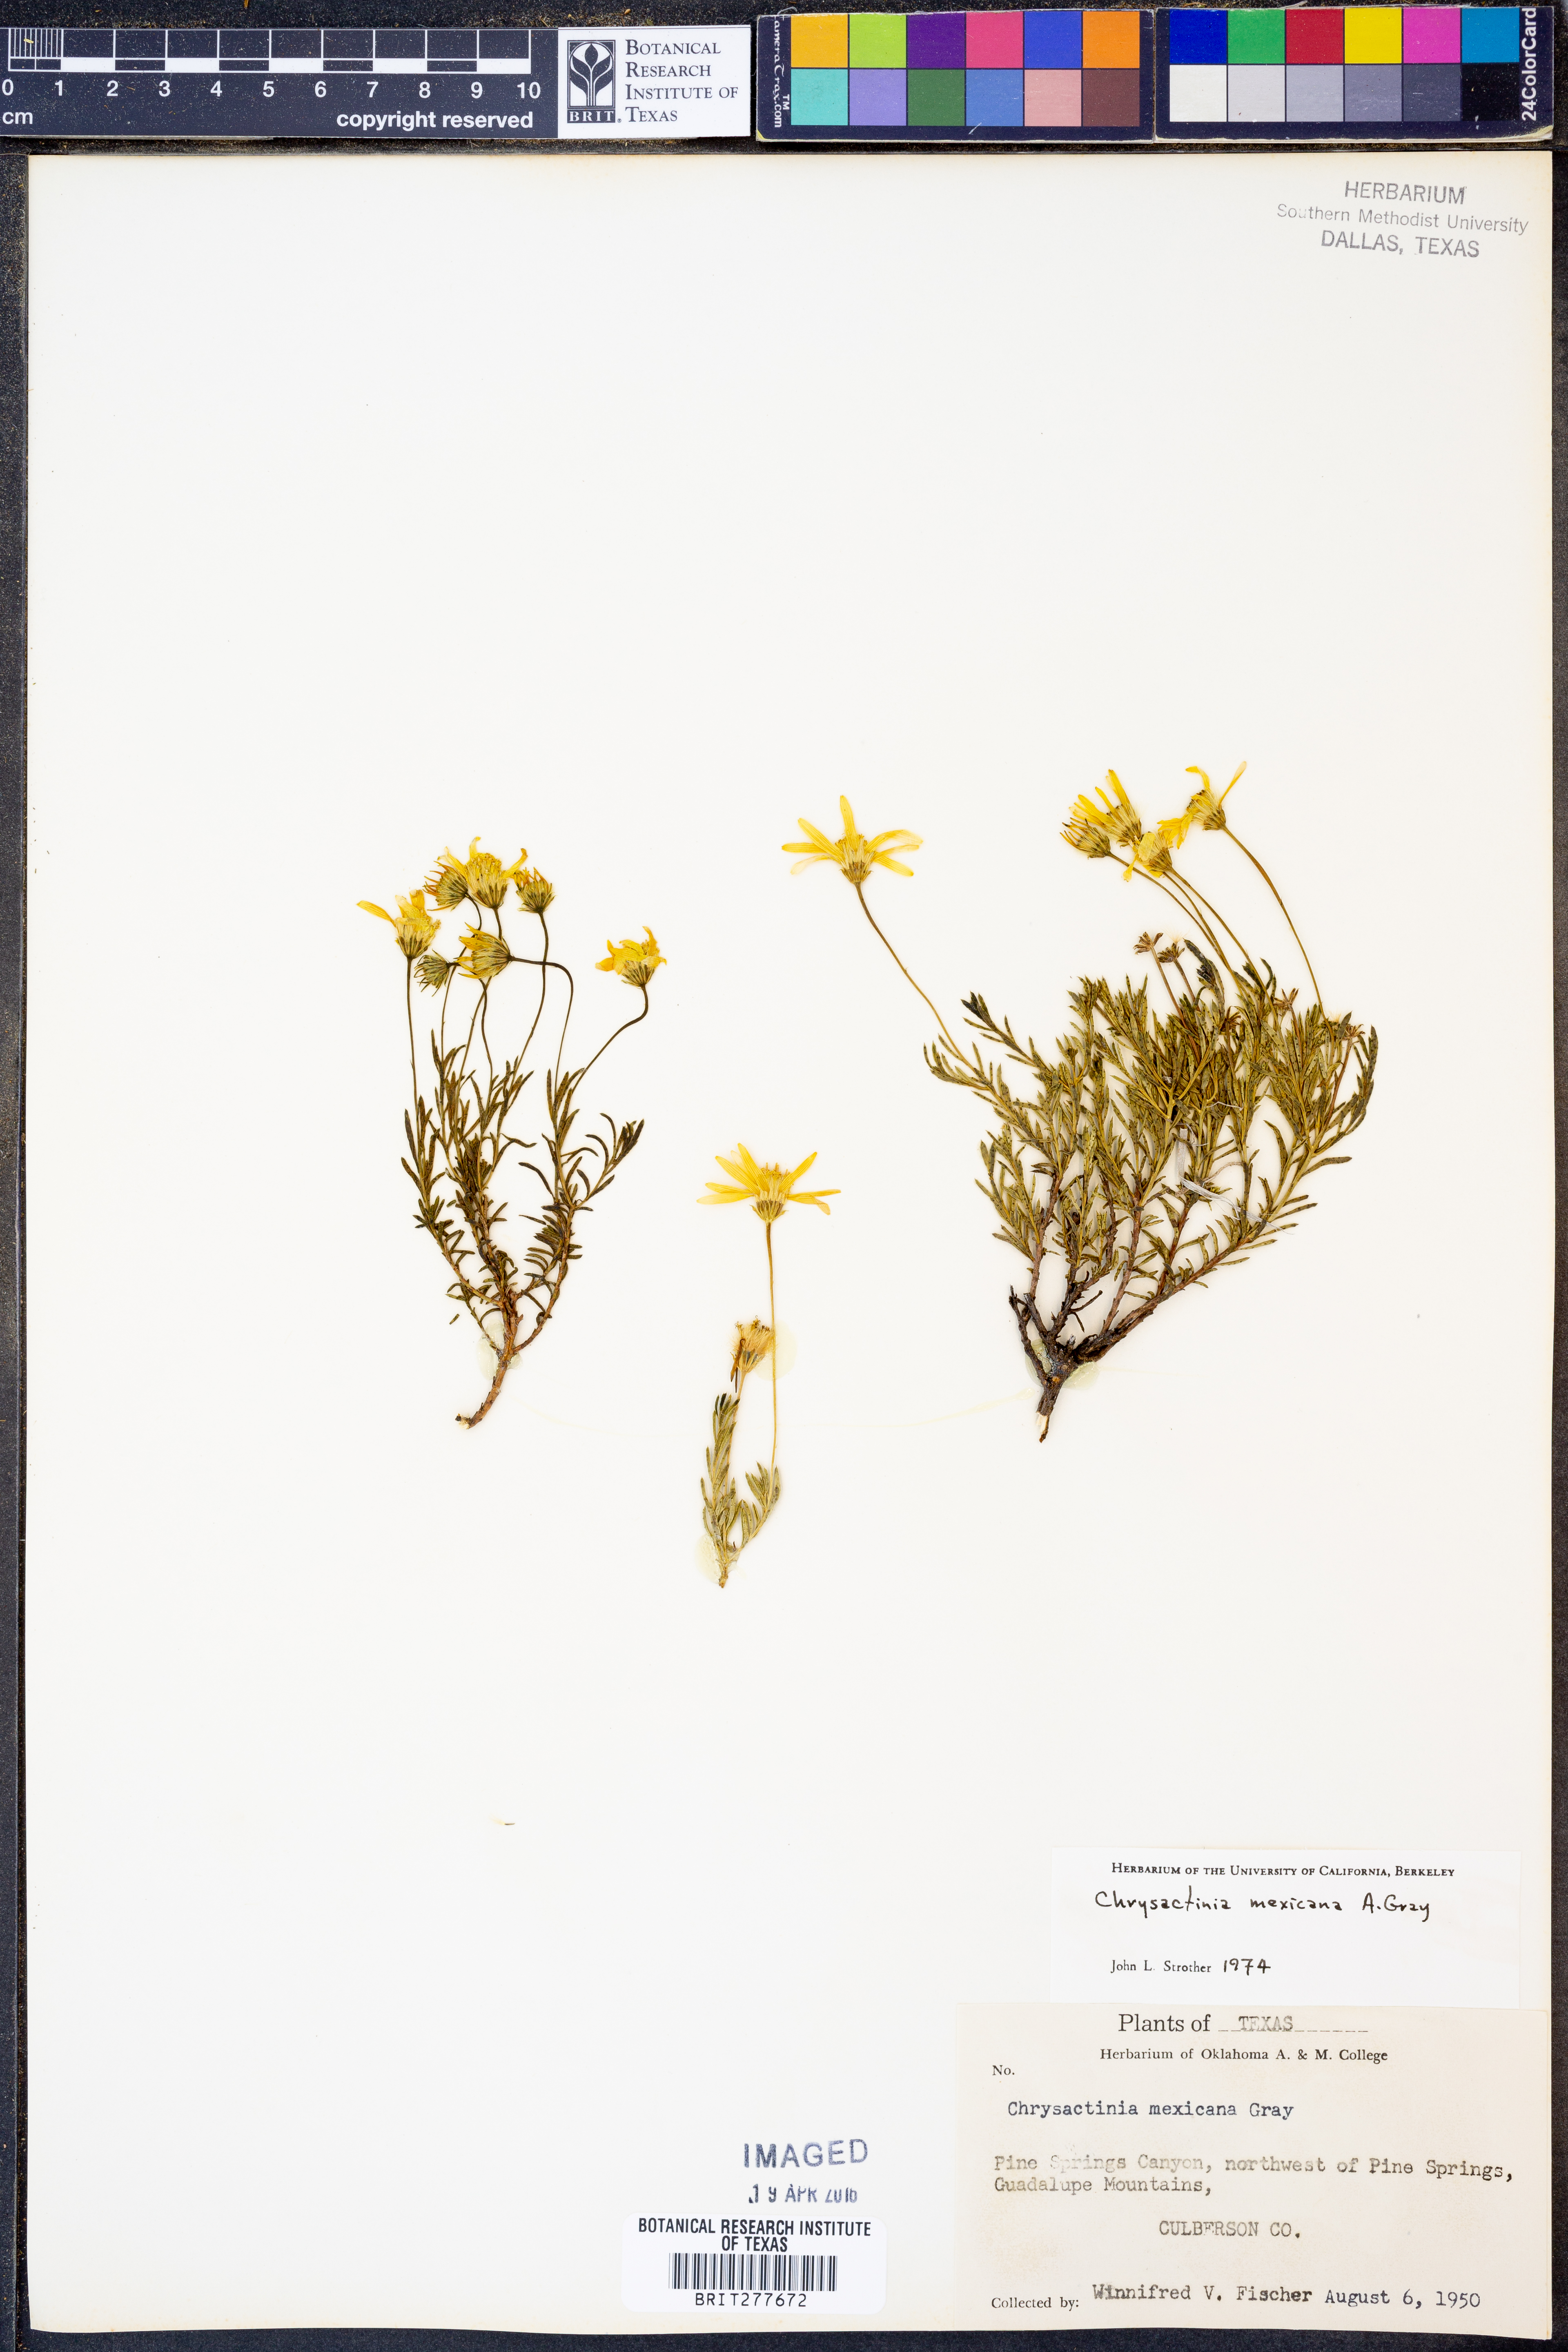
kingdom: Plantae
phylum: Tracheophyta
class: Magnoliopsida
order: Asterales
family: Asteraceae
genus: Chrysactinia
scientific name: Chrysactinia mexicana
